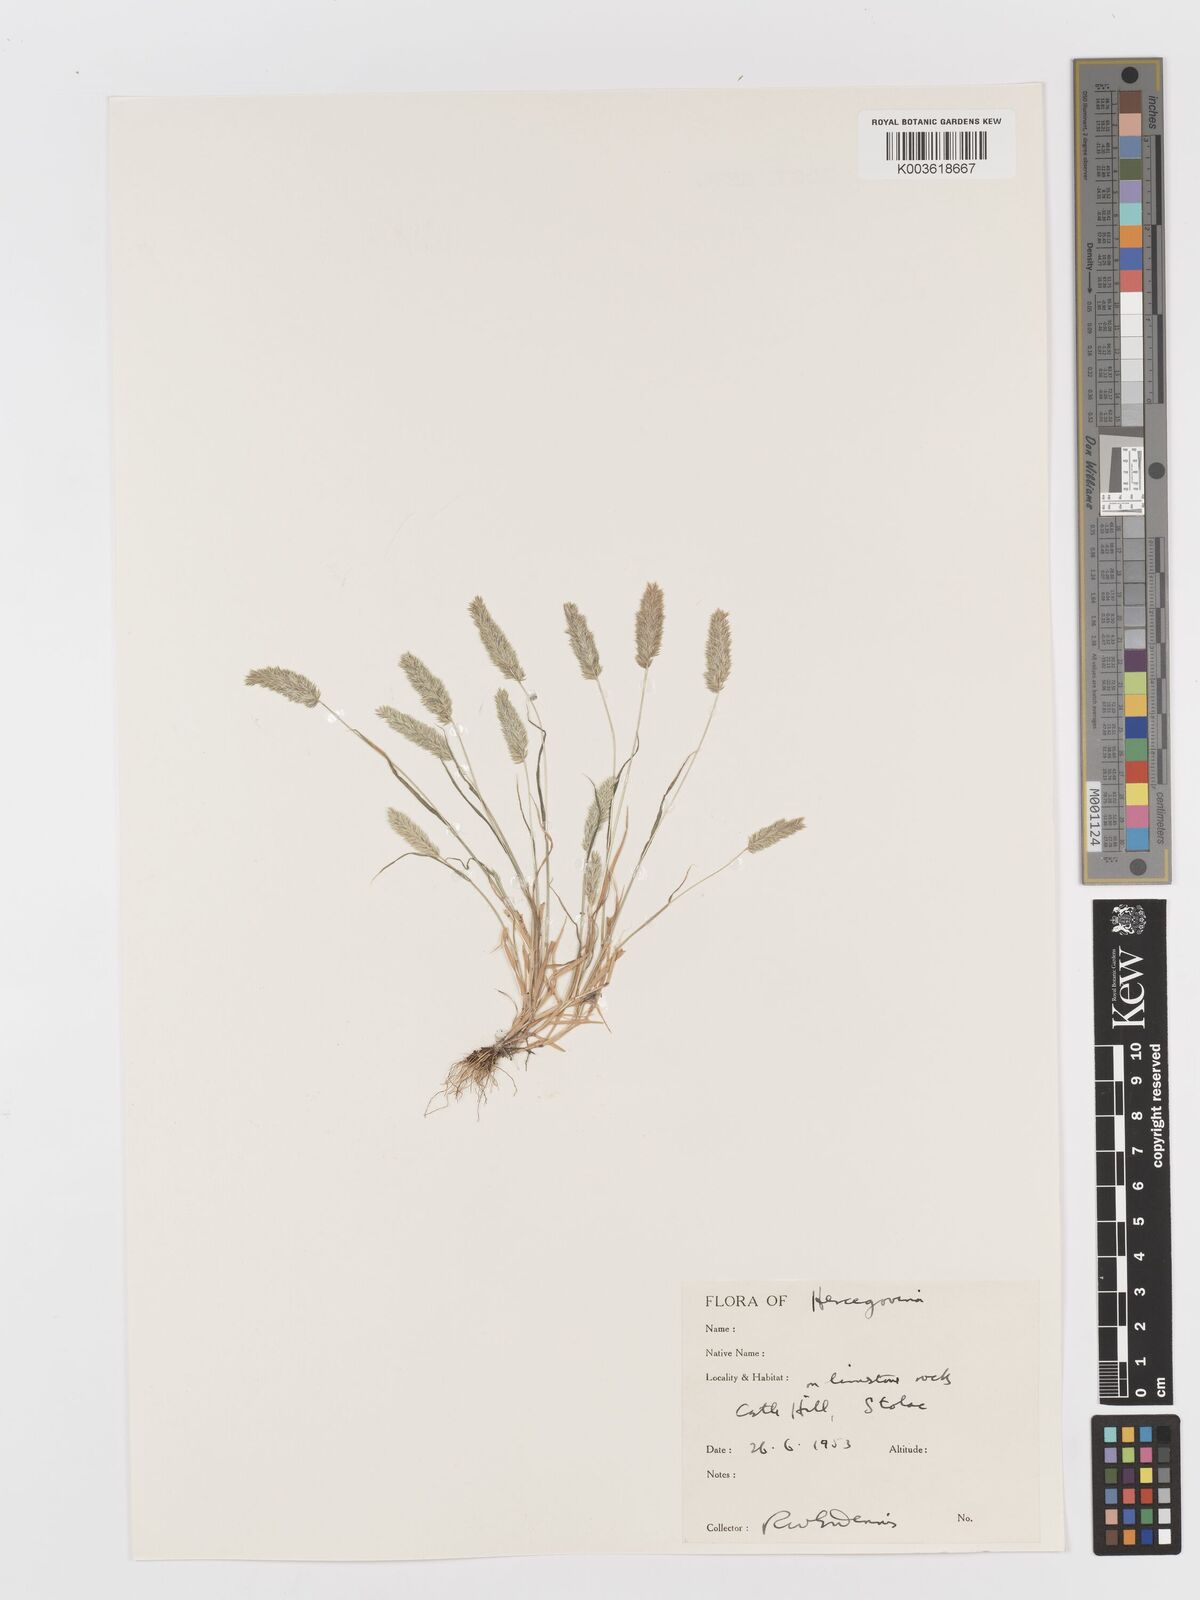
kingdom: Plantae
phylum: Tracheophyta
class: Liliopsida
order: Poales
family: Poaceae
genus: Rostraria
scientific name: Rostraria
